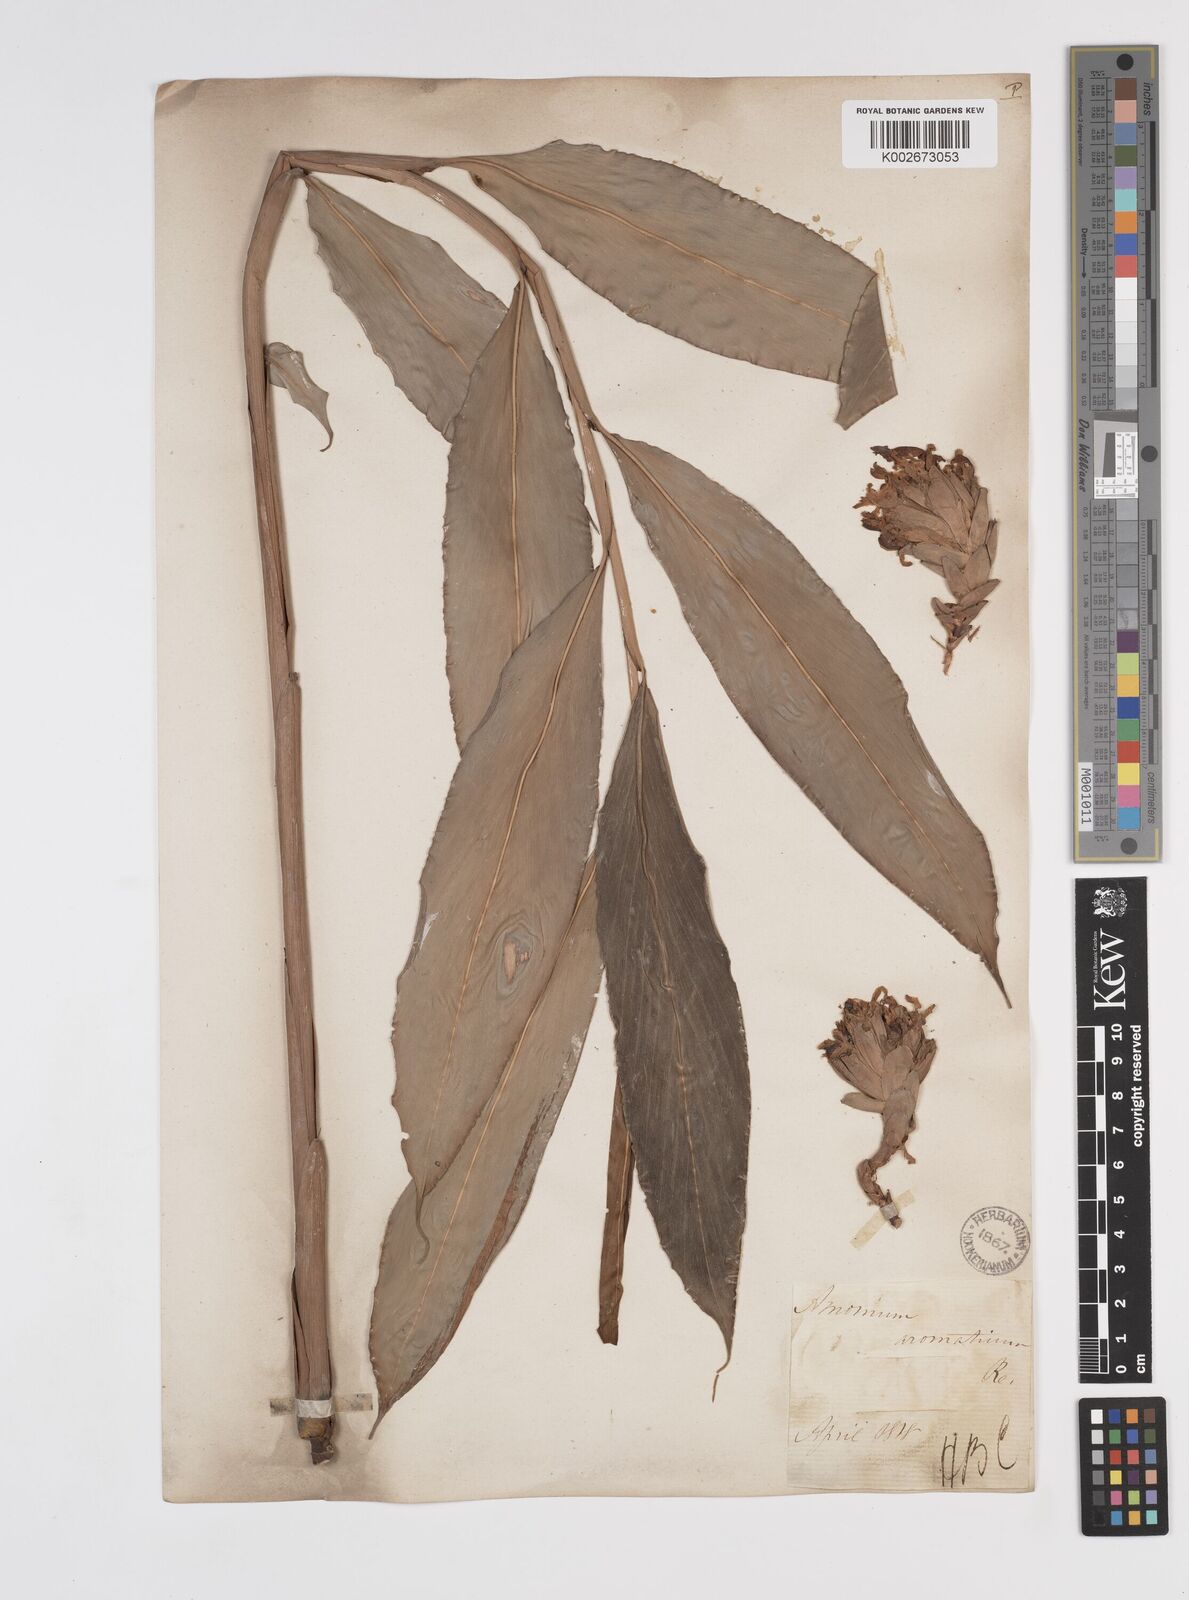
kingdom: Plantae
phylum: Tracheophyta
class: Liliopsida
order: Zingiberales
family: Zingiberaceae
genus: Wurfbainia
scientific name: Wurfbainia aromatica
